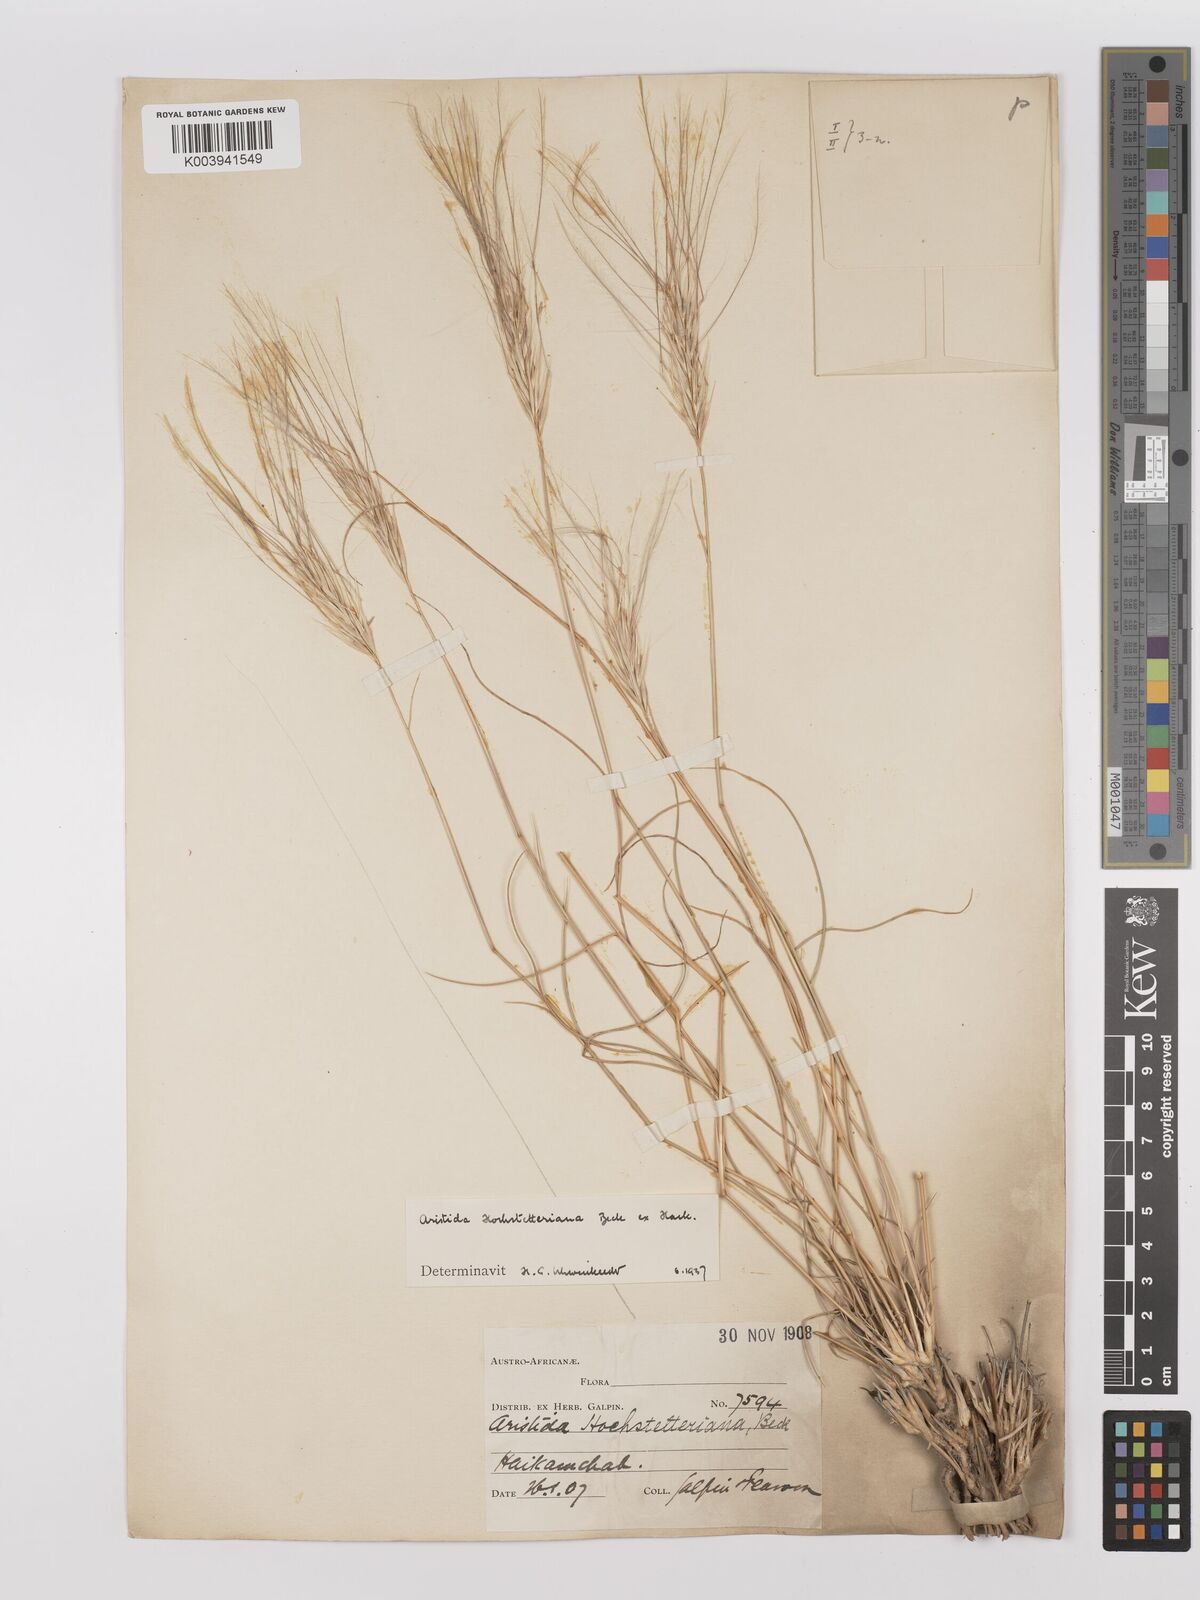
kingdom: Plantae
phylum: Tracheophyta
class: Liliopsida
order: Poales
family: Poaceae
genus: Stipagrostis
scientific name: Stipagrostis hochstetteriana
